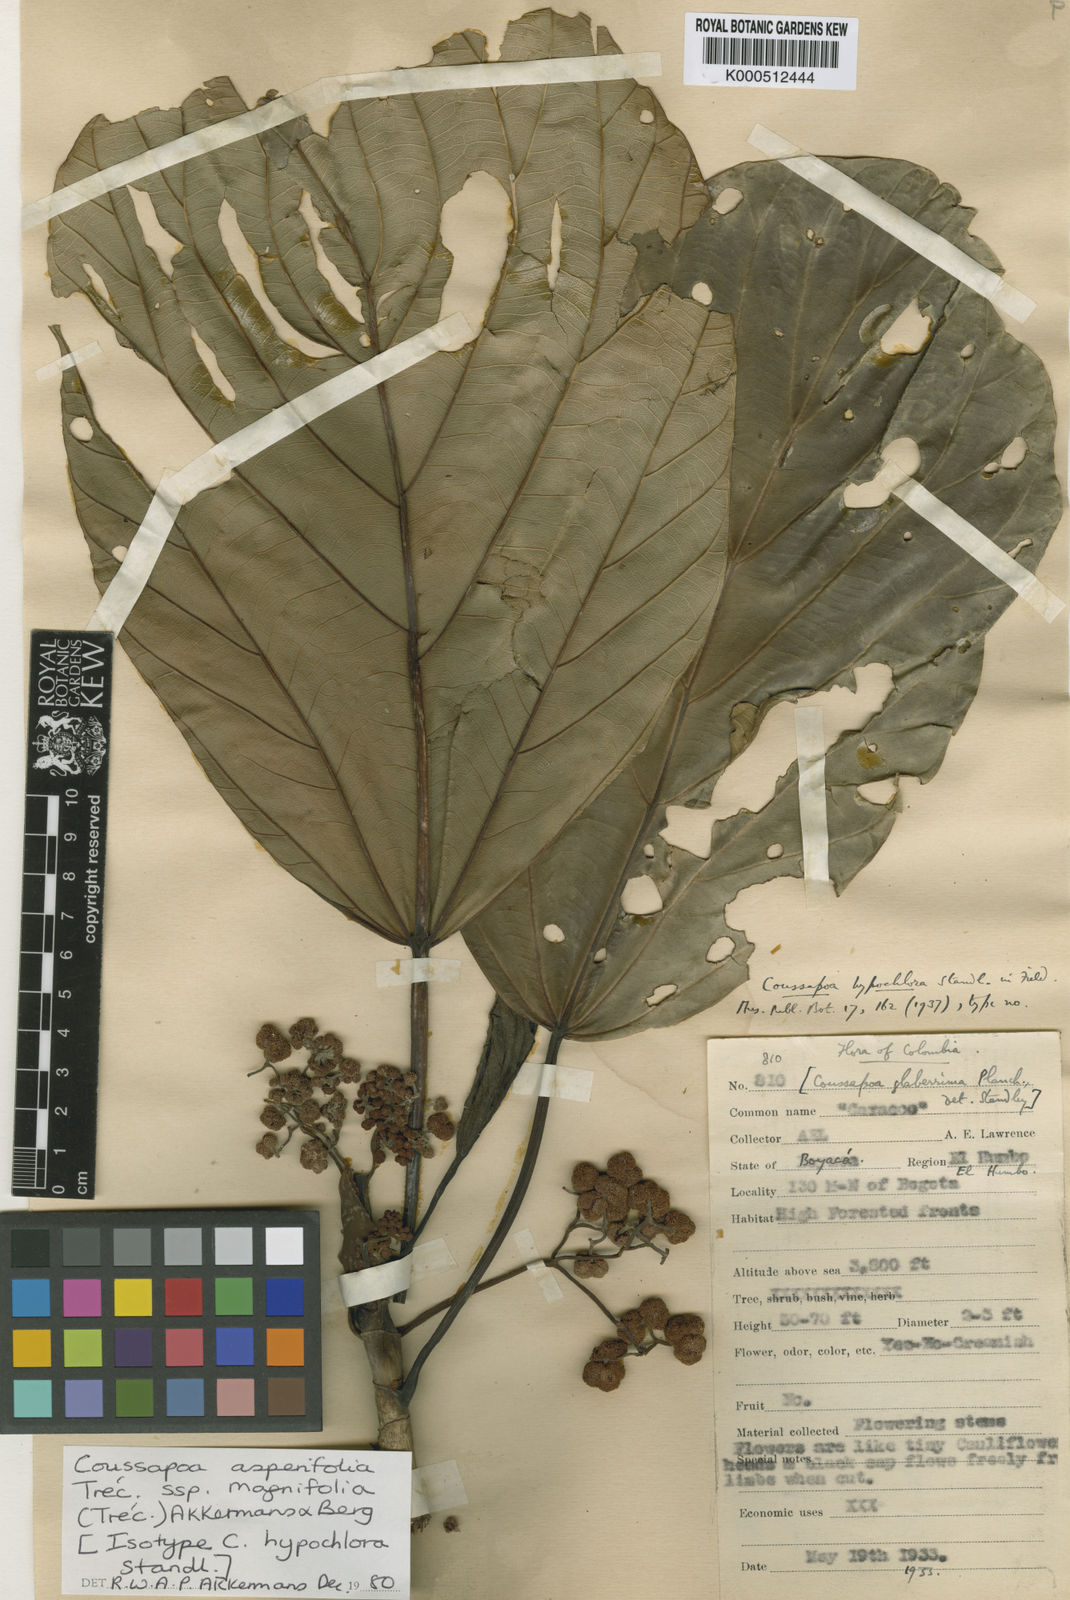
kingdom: Plantae
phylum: Tracheophyta
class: Magnoliopsida
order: Rosales
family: Urticaceae
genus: Coussapoa
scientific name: Coussapoa
